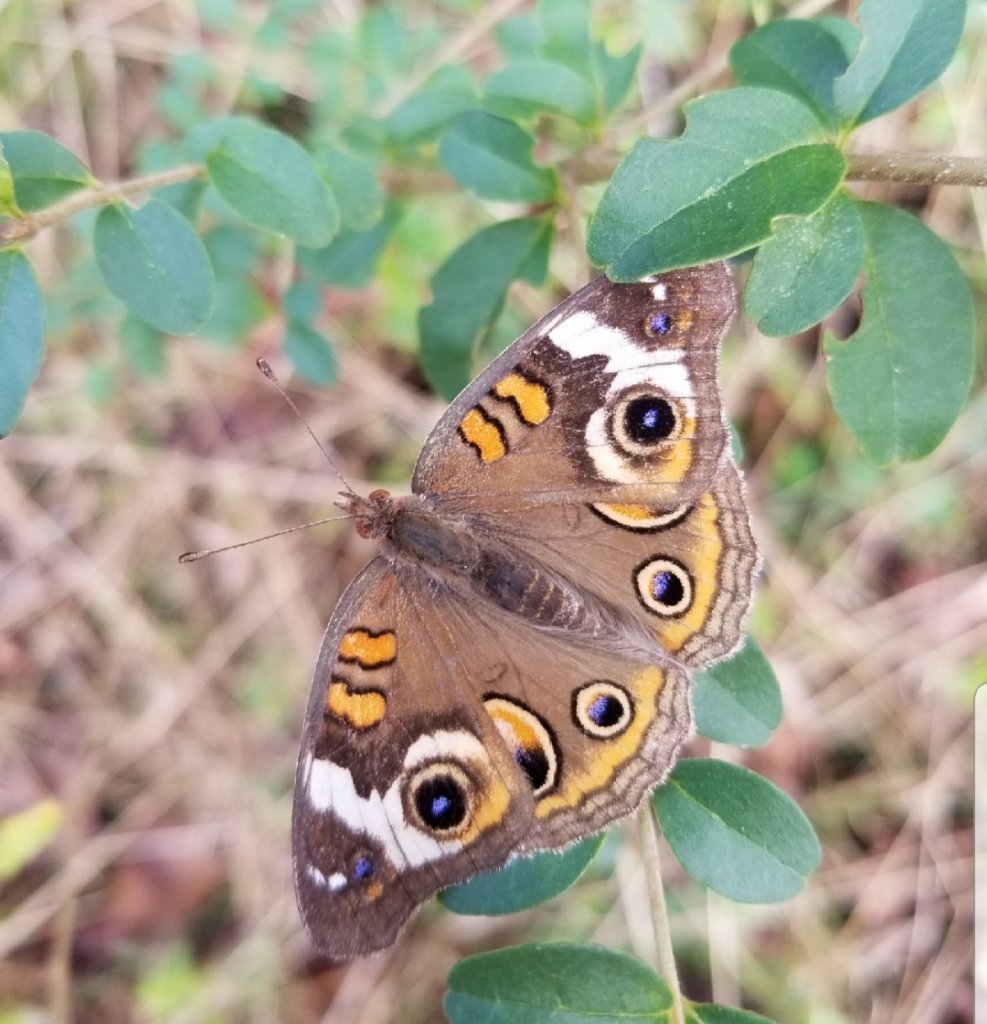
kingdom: Animalia
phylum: Arthropoda
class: Insecta
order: Lepidoptera
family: Nymphalidae
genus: Junonia
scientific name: Junonia coenia
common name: Common Buckeye
